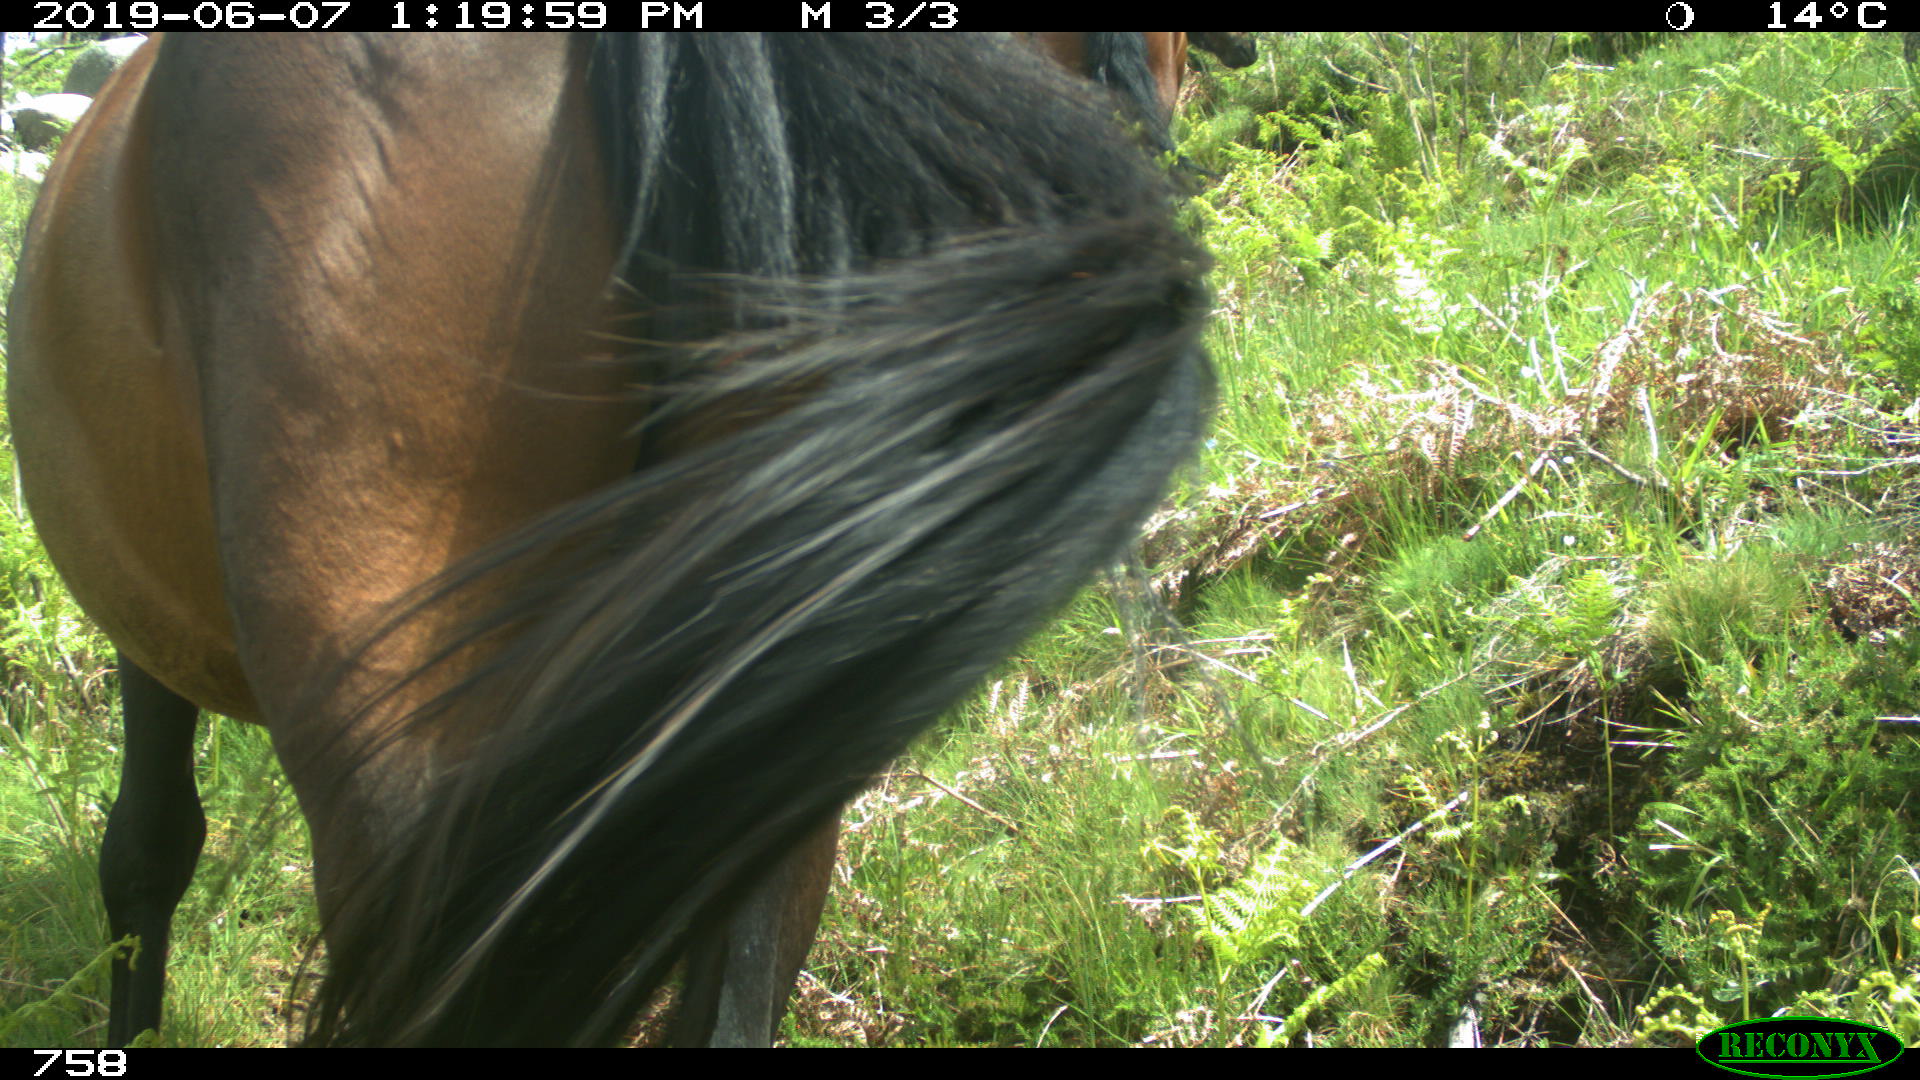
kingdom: Animalia
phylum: Chordata
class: Mammalia
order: Perissodactyla
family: Equidae
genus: Equus
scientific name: Equus caballus
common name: Horse
